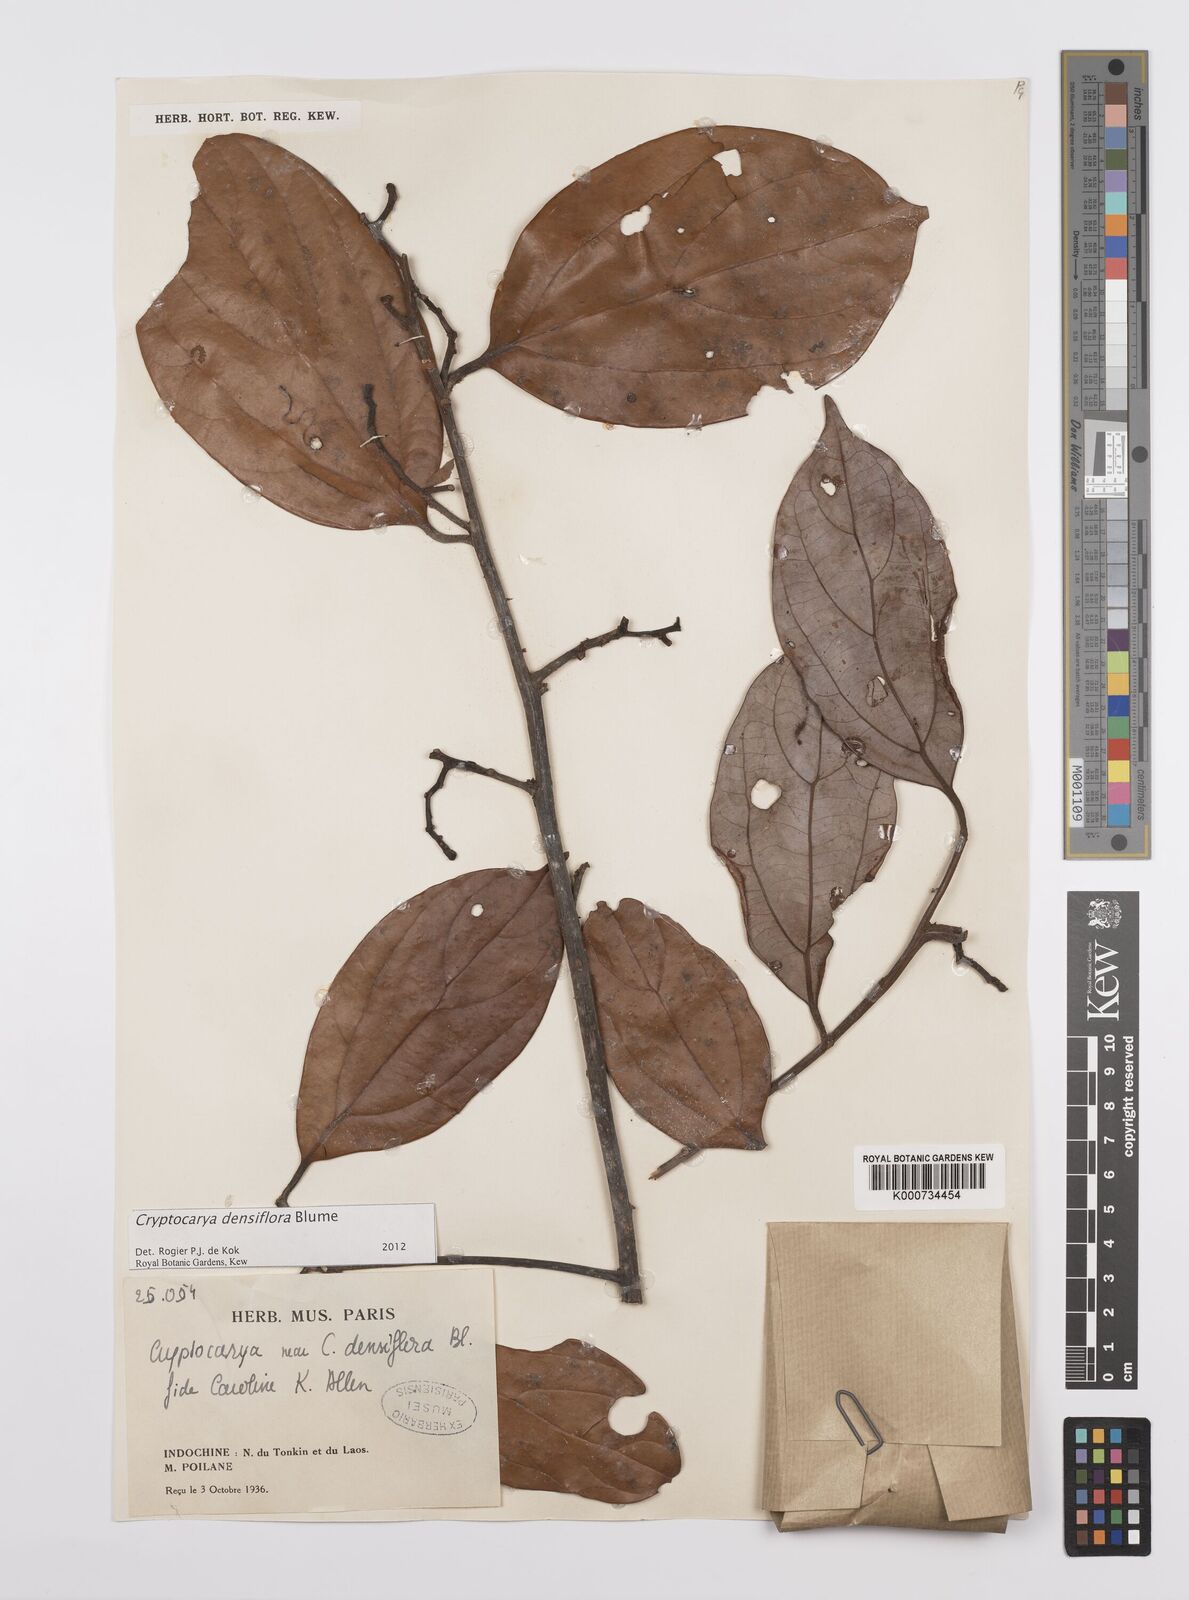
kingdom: Plantae
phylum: Tracheophyta
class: Magnoliopsida
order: Laurales
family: Lauraceae
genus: Cryptocarya
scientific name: Cryptocarya densiflora
